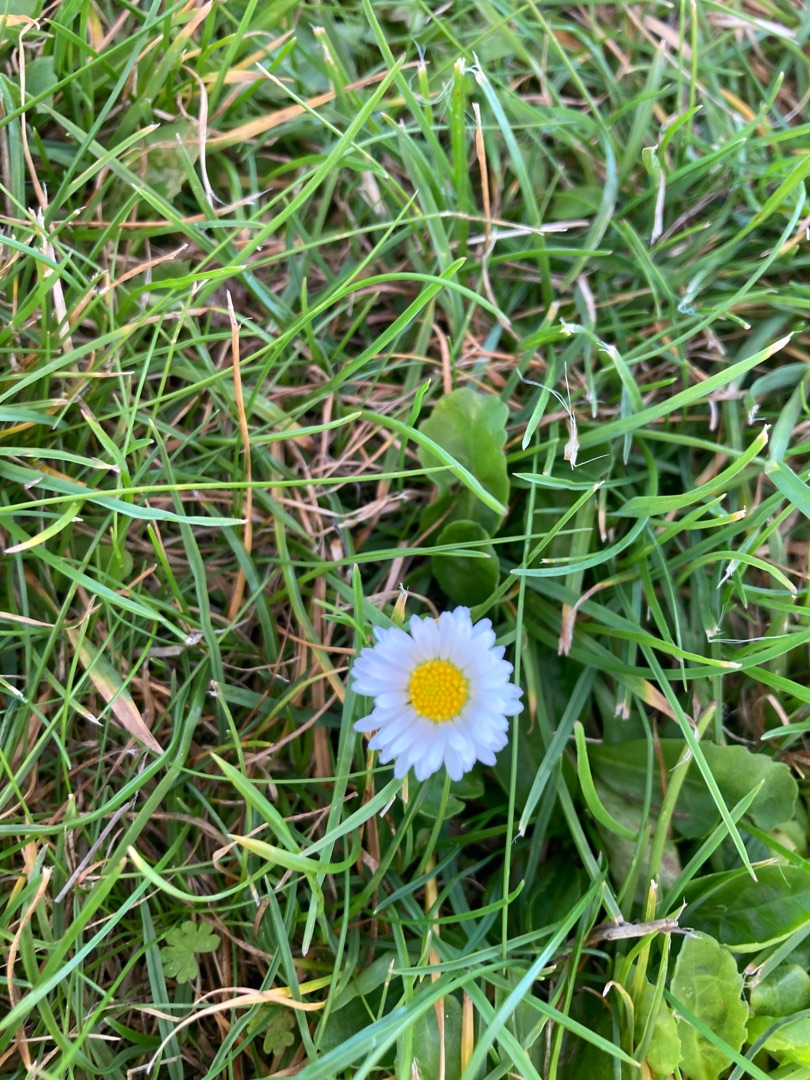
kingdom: Plantae
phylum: Tracheophyta
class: Magnoliopsida
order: Asterales
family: Asteraceae
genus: Bellis
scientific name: Bellis perennis
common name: Tusindfryd
